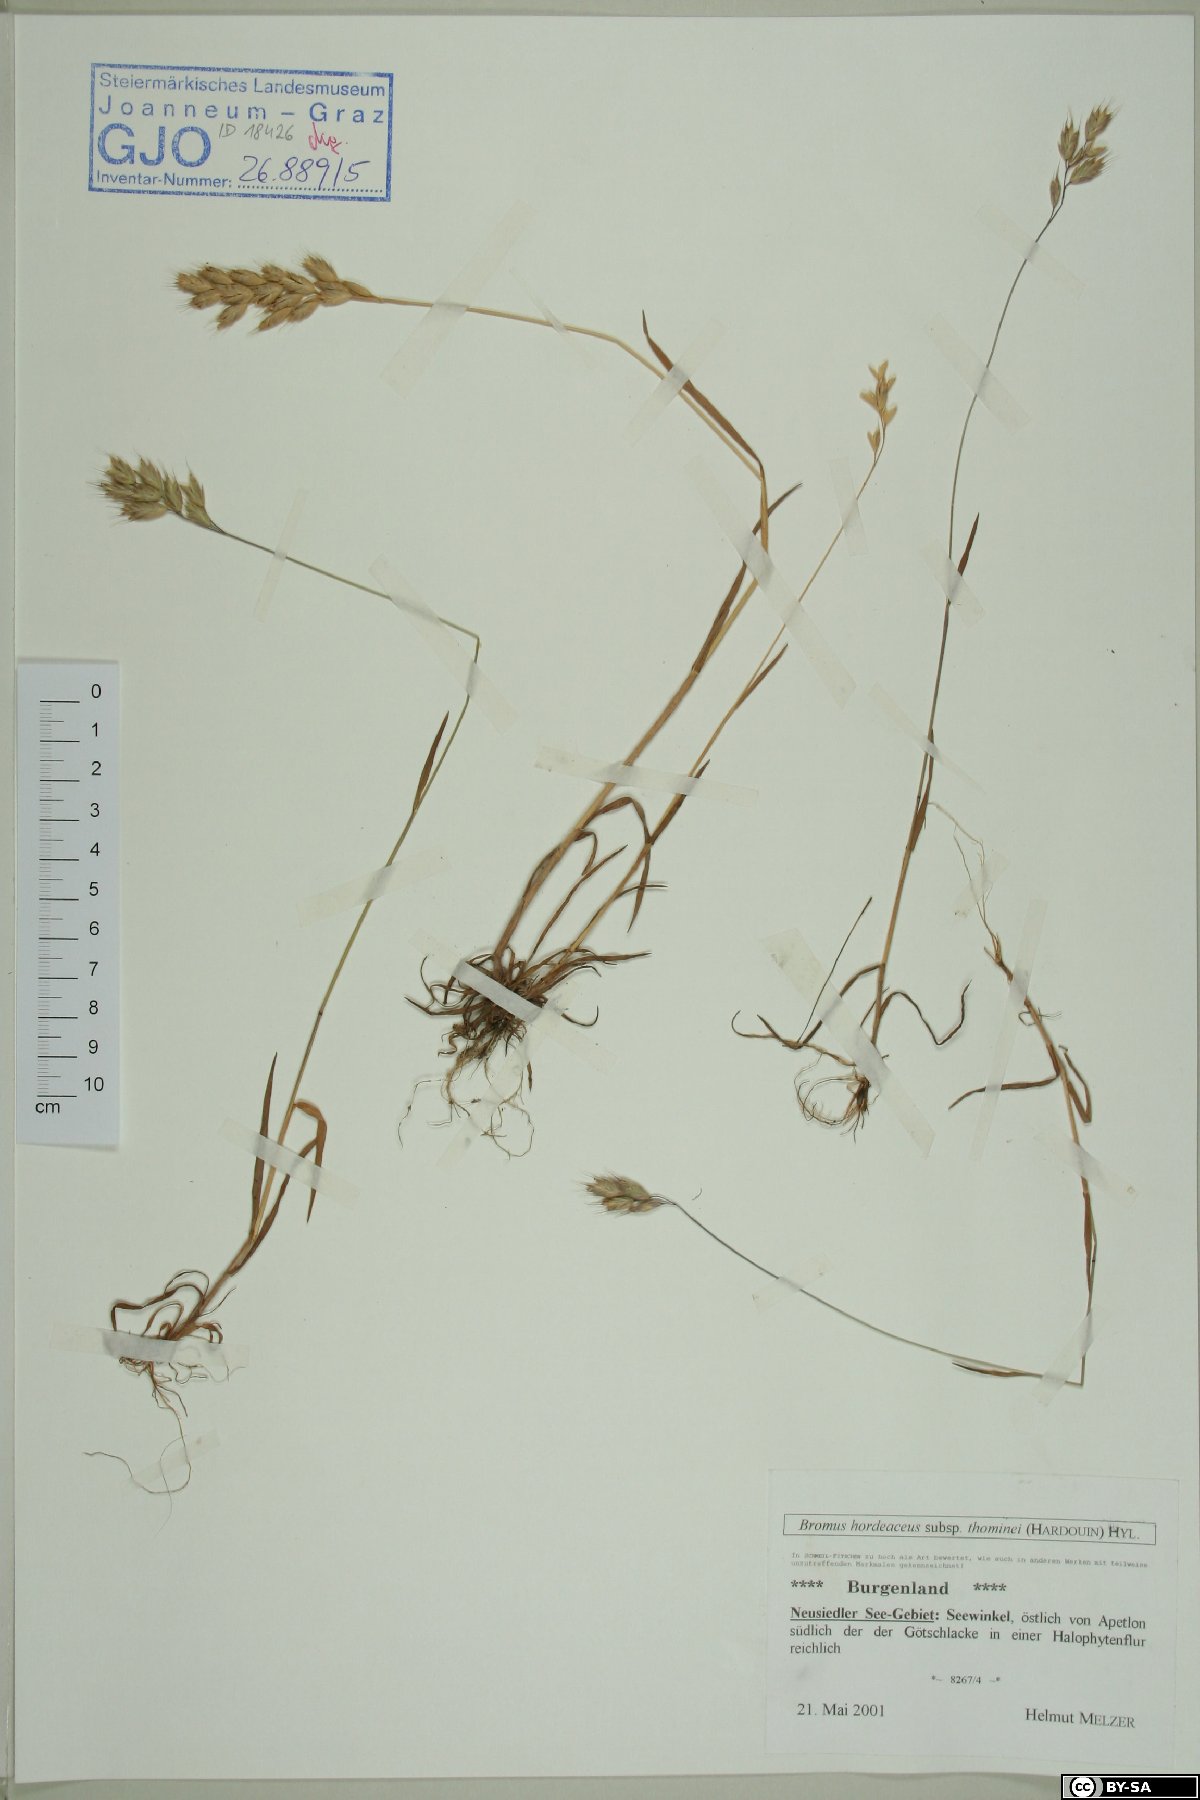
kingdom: Plantae
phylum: Tracheophyta
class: Liliopsida
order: Poales
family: Poaceae
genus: Bromus
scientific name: Bromus hordeaceus
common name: Soft brome
